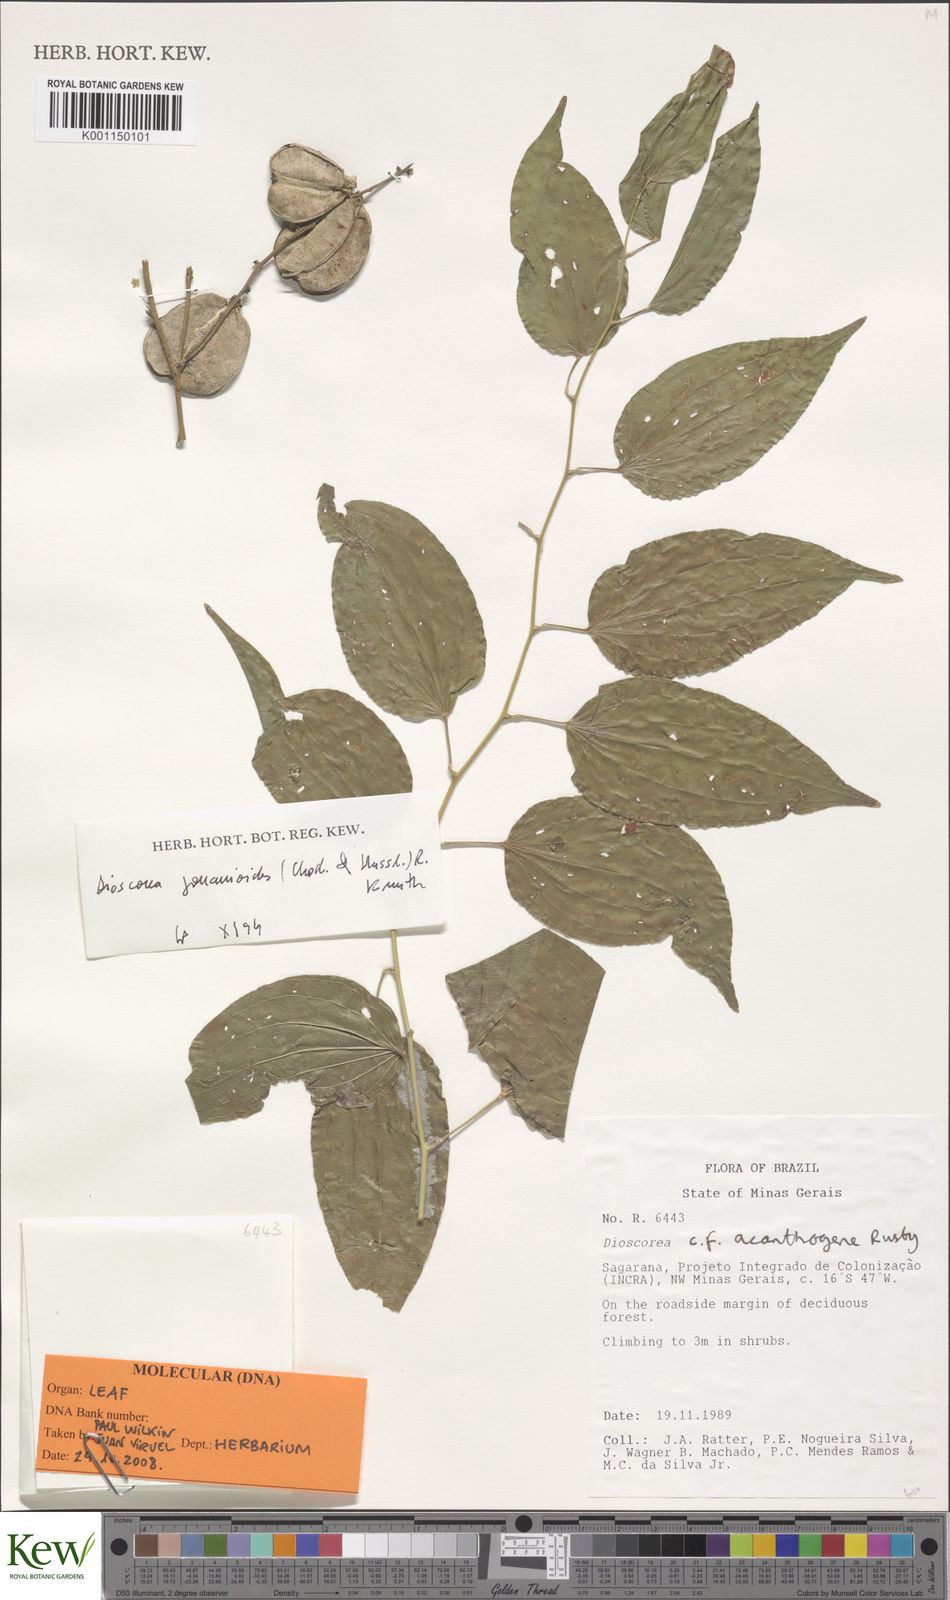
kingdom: Plantae
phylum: Tracheophyta
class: Liliopsida
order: Dioscoreales
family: Dioscoreaceae
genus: Dioscorea
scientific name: Dioscorea acanthogene
